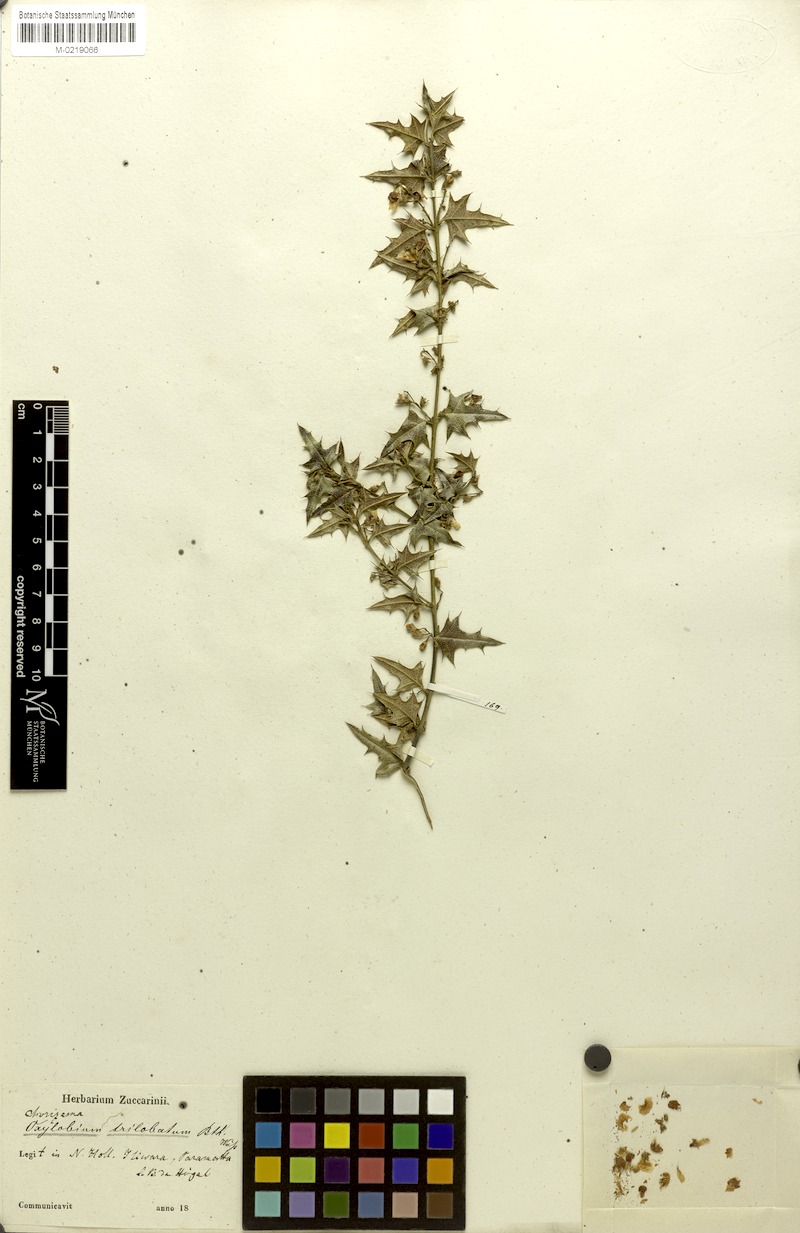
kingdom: Plantae
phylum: Tracheophyta
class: Magnoliopsida
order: Fabales
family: Fabaceae
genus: Podolobium
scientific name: Podolobium ilicifolium
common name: Native holly
